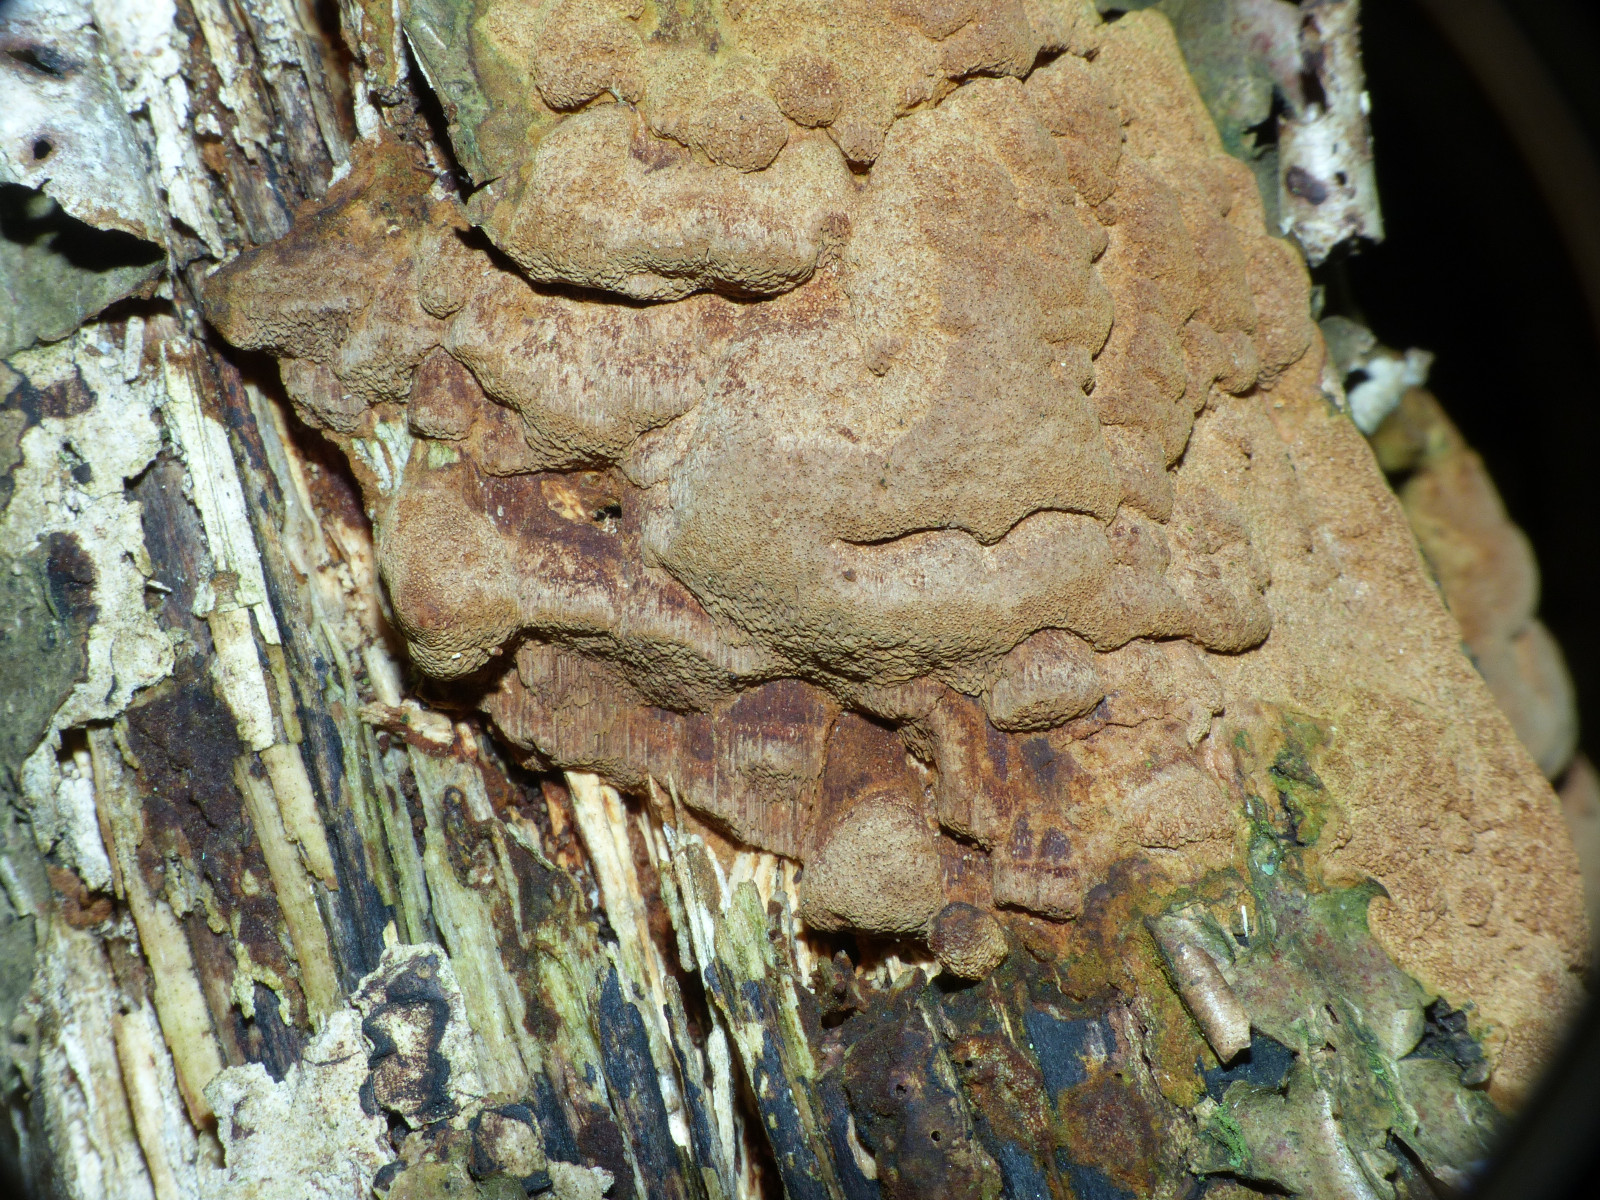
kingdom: Fungi
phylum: Basidiomycota
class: Agaricomycetes
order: Hymenochaetales
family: Hymenochaetaceae
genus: Fuscoporia
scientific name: Fuscoporia ferrea
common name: skorpe-ildporesvamp
